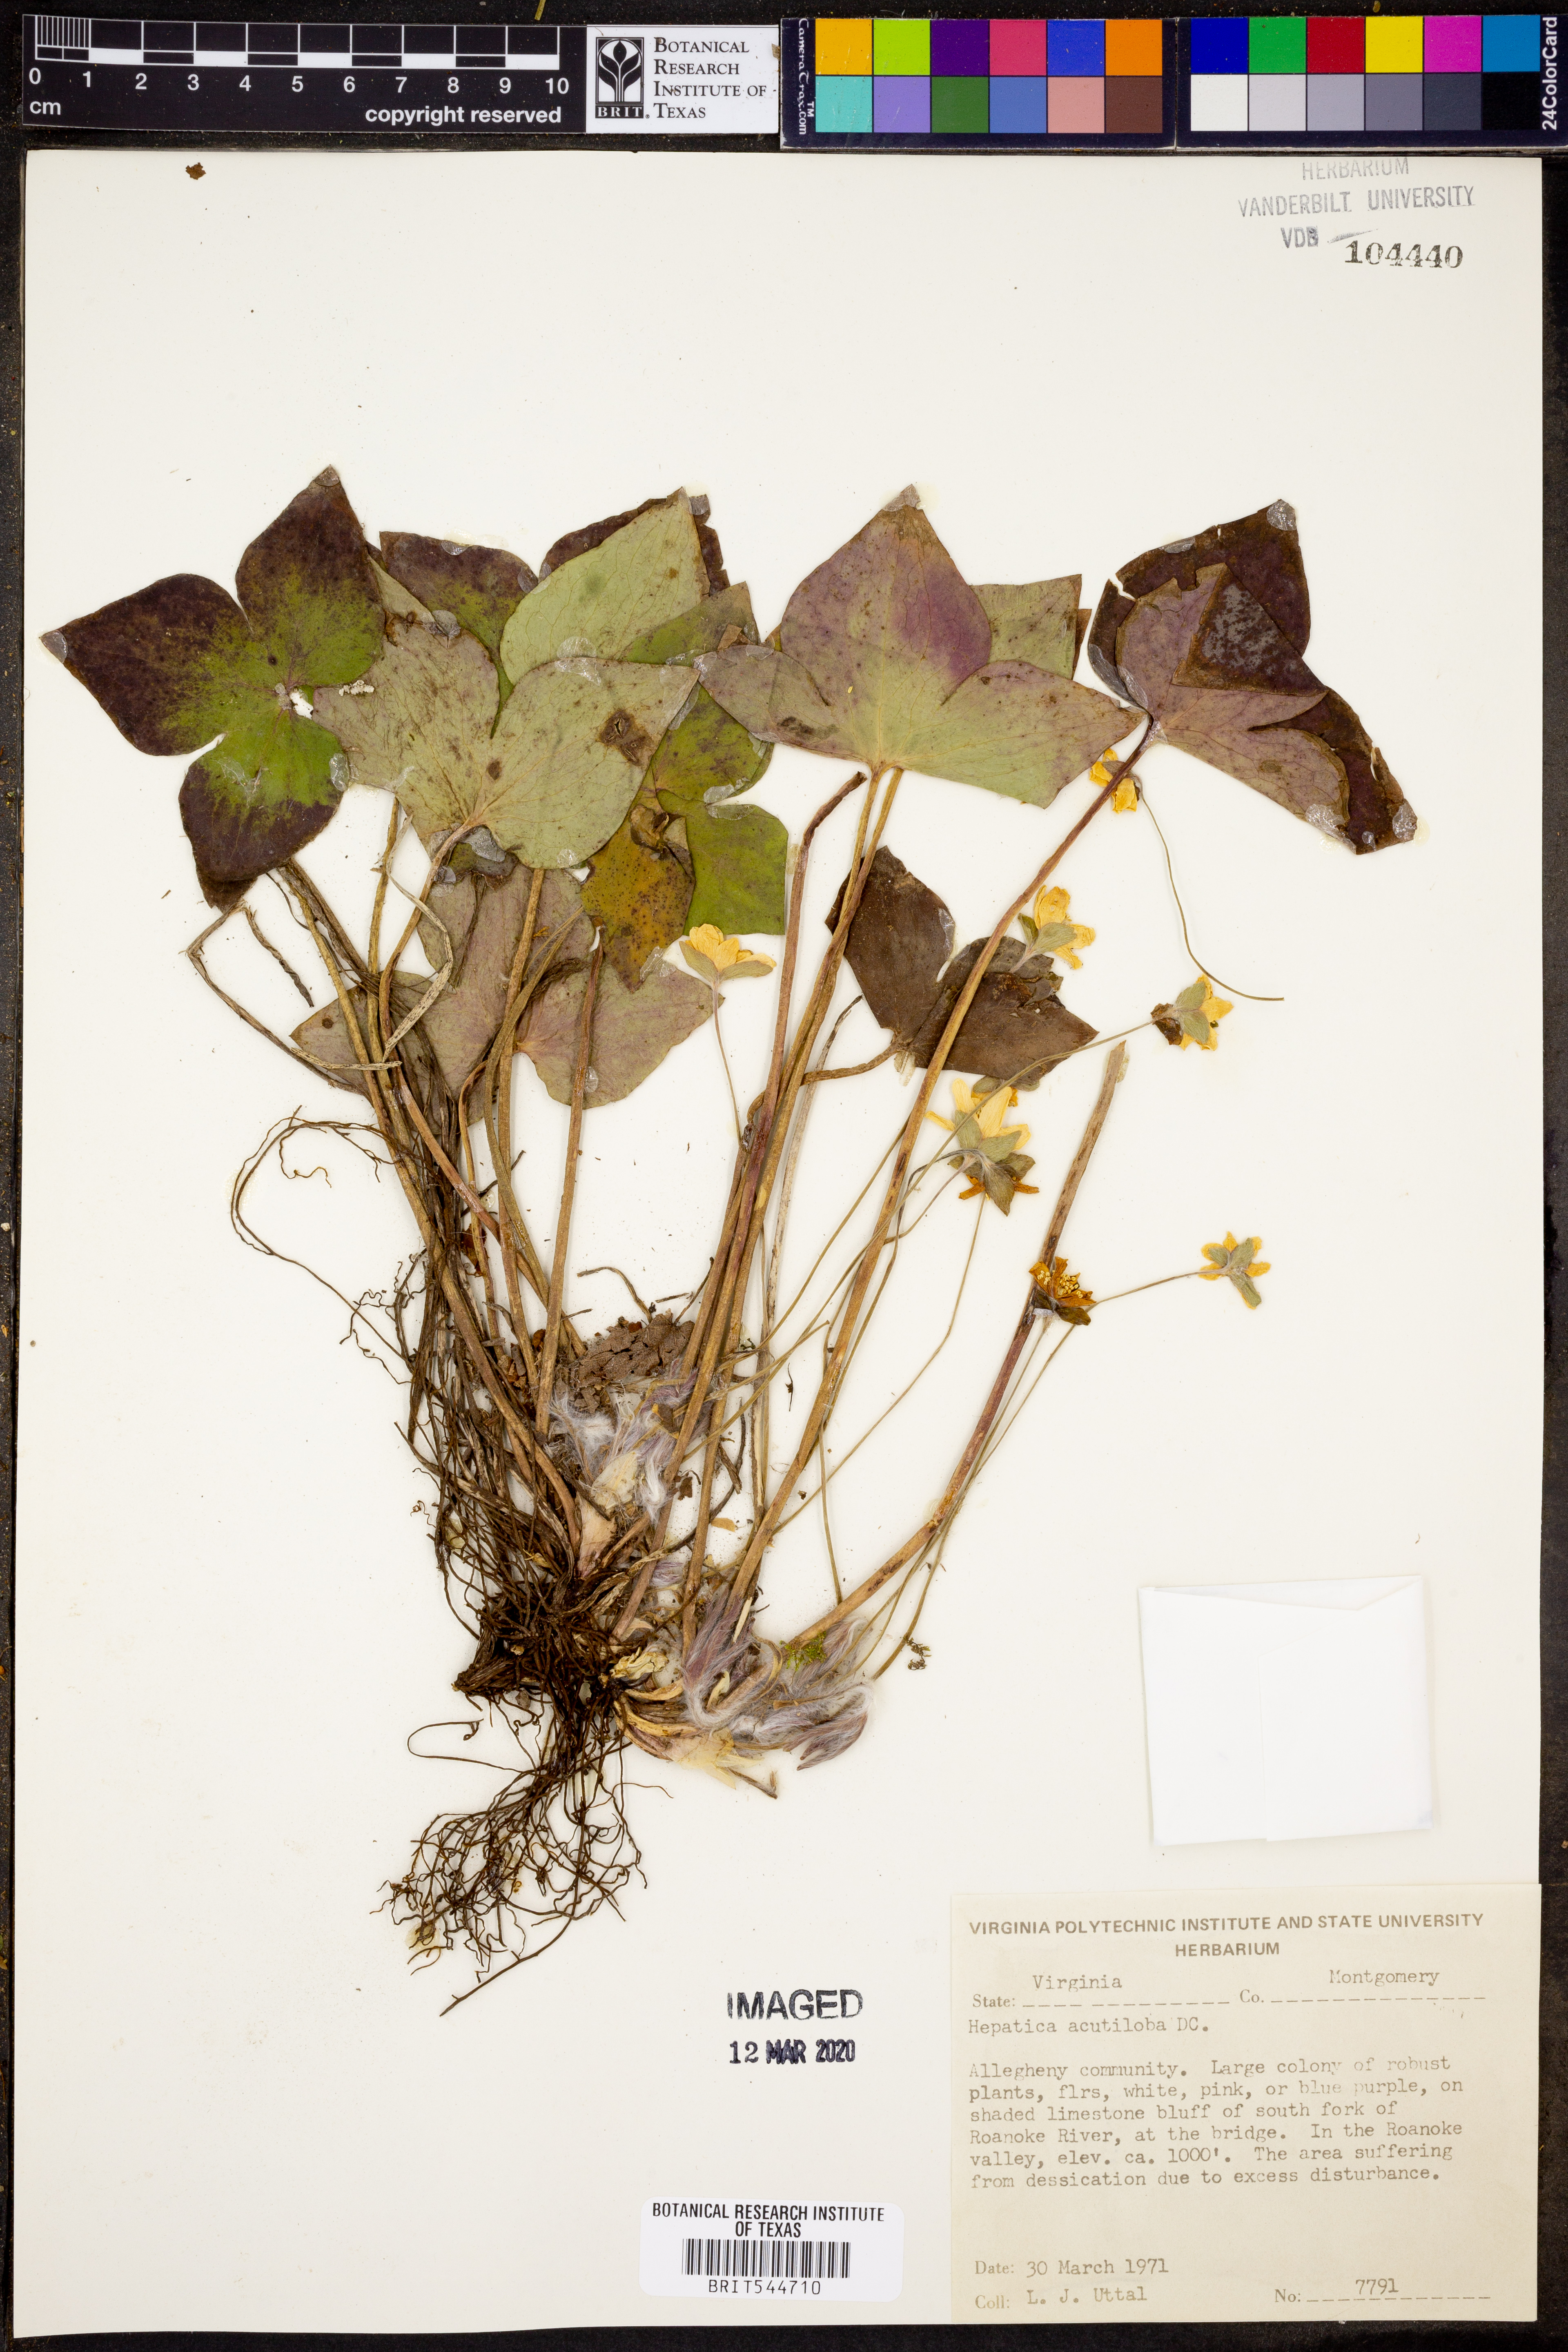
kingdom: Plantae
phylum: Tracheophyta
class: Magnoliopsida
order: Ranunculales
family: Ranunculaceae
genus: Hepatica
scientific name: Hepatica acutiloba
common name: Sharp-lobed hepatica
